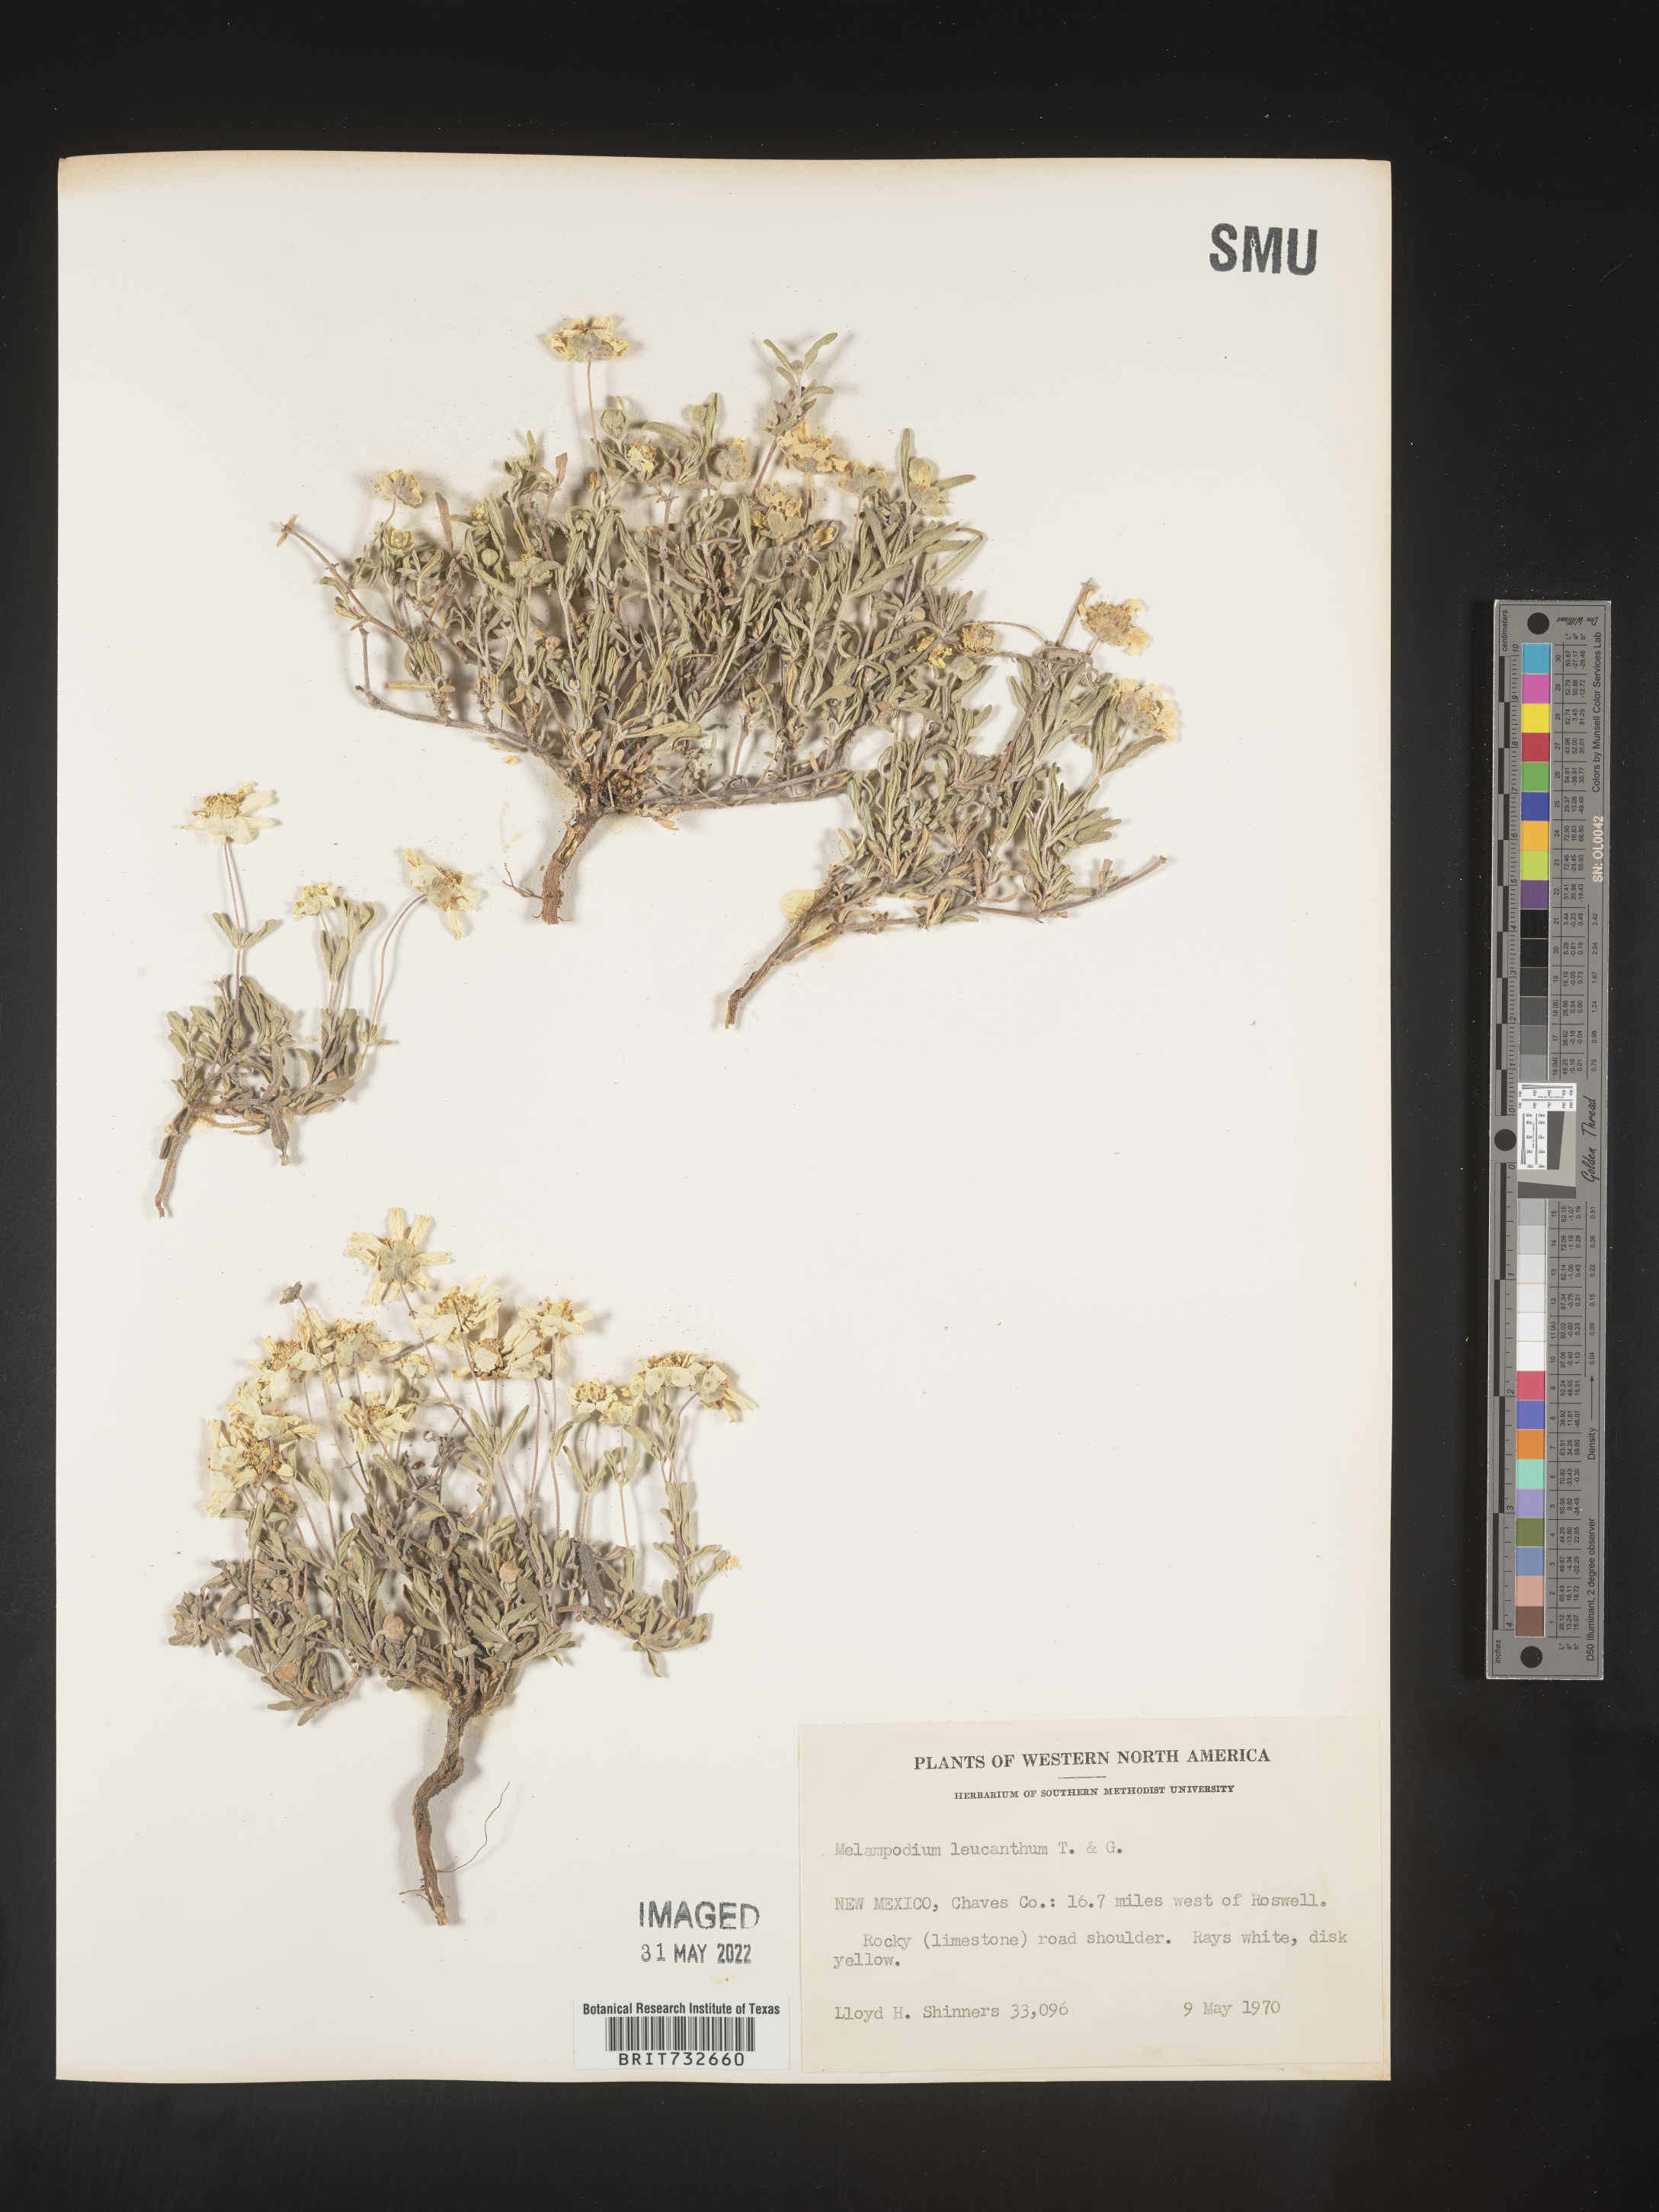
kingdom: Plantae
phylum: Tracheophyta
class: Magnoliopsida
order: Asterales
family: Asteraceae
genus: Melampodium
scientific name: Melampodium leucanthum
